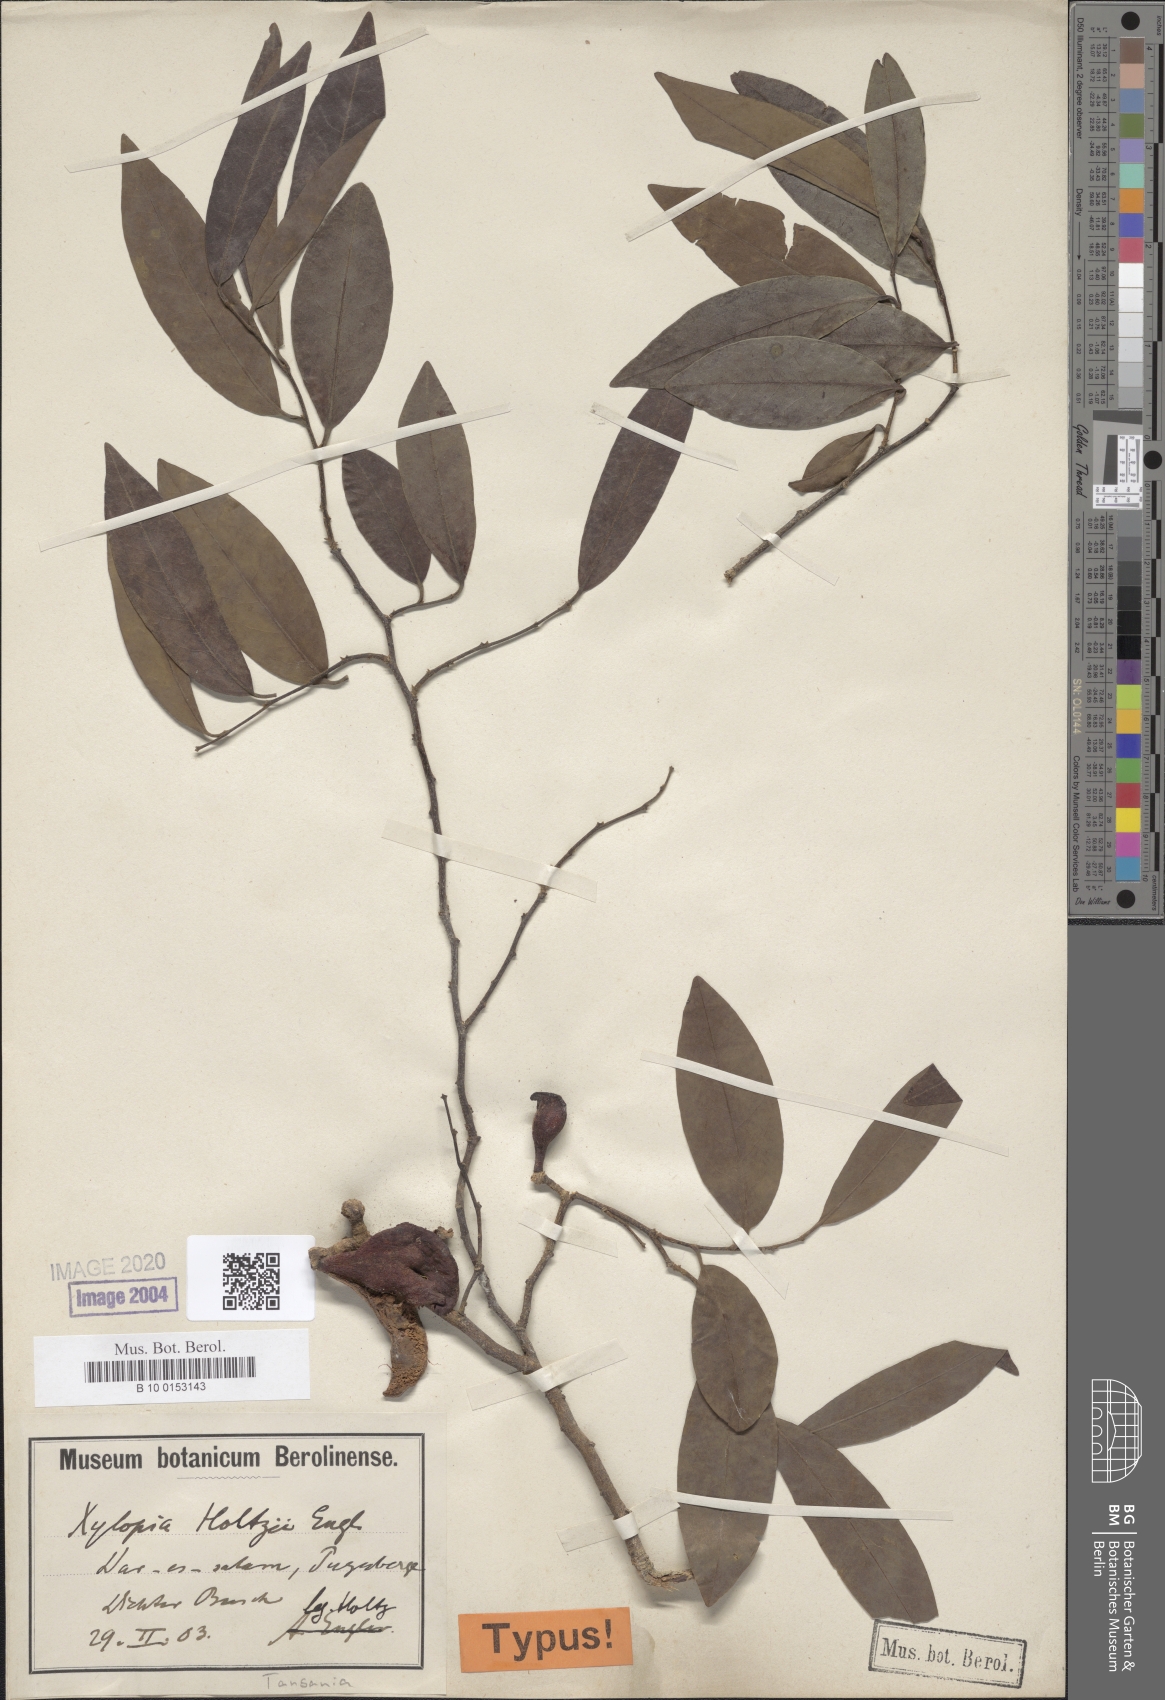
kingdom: Plantae
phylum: Tracheophyta
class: Magnoliopsida
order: Magnoliales
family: Annonaceae
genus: Xylopia
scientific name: Xylopia parviflora
